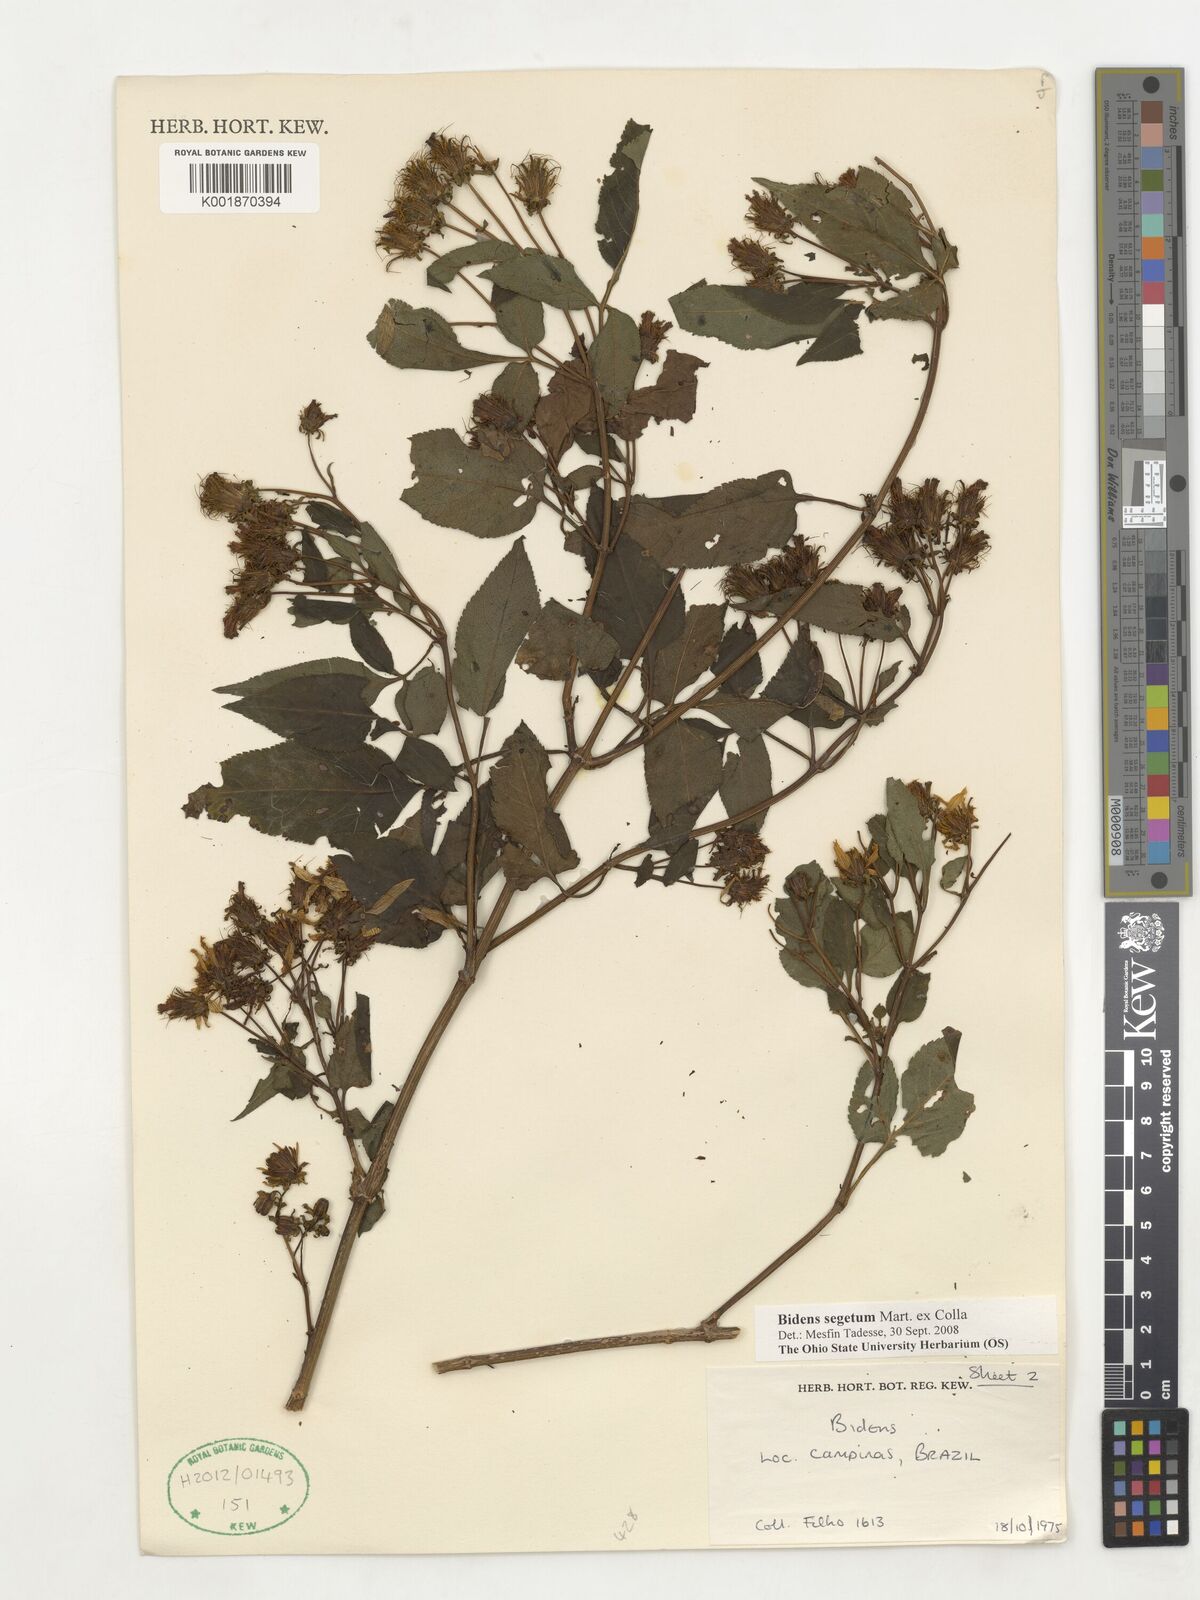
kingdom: Plantae
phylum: Tracheophyta
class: Magnoliopsida
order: Asterales
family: Asteraceae
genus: Bidens
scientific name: Bidens segetum
